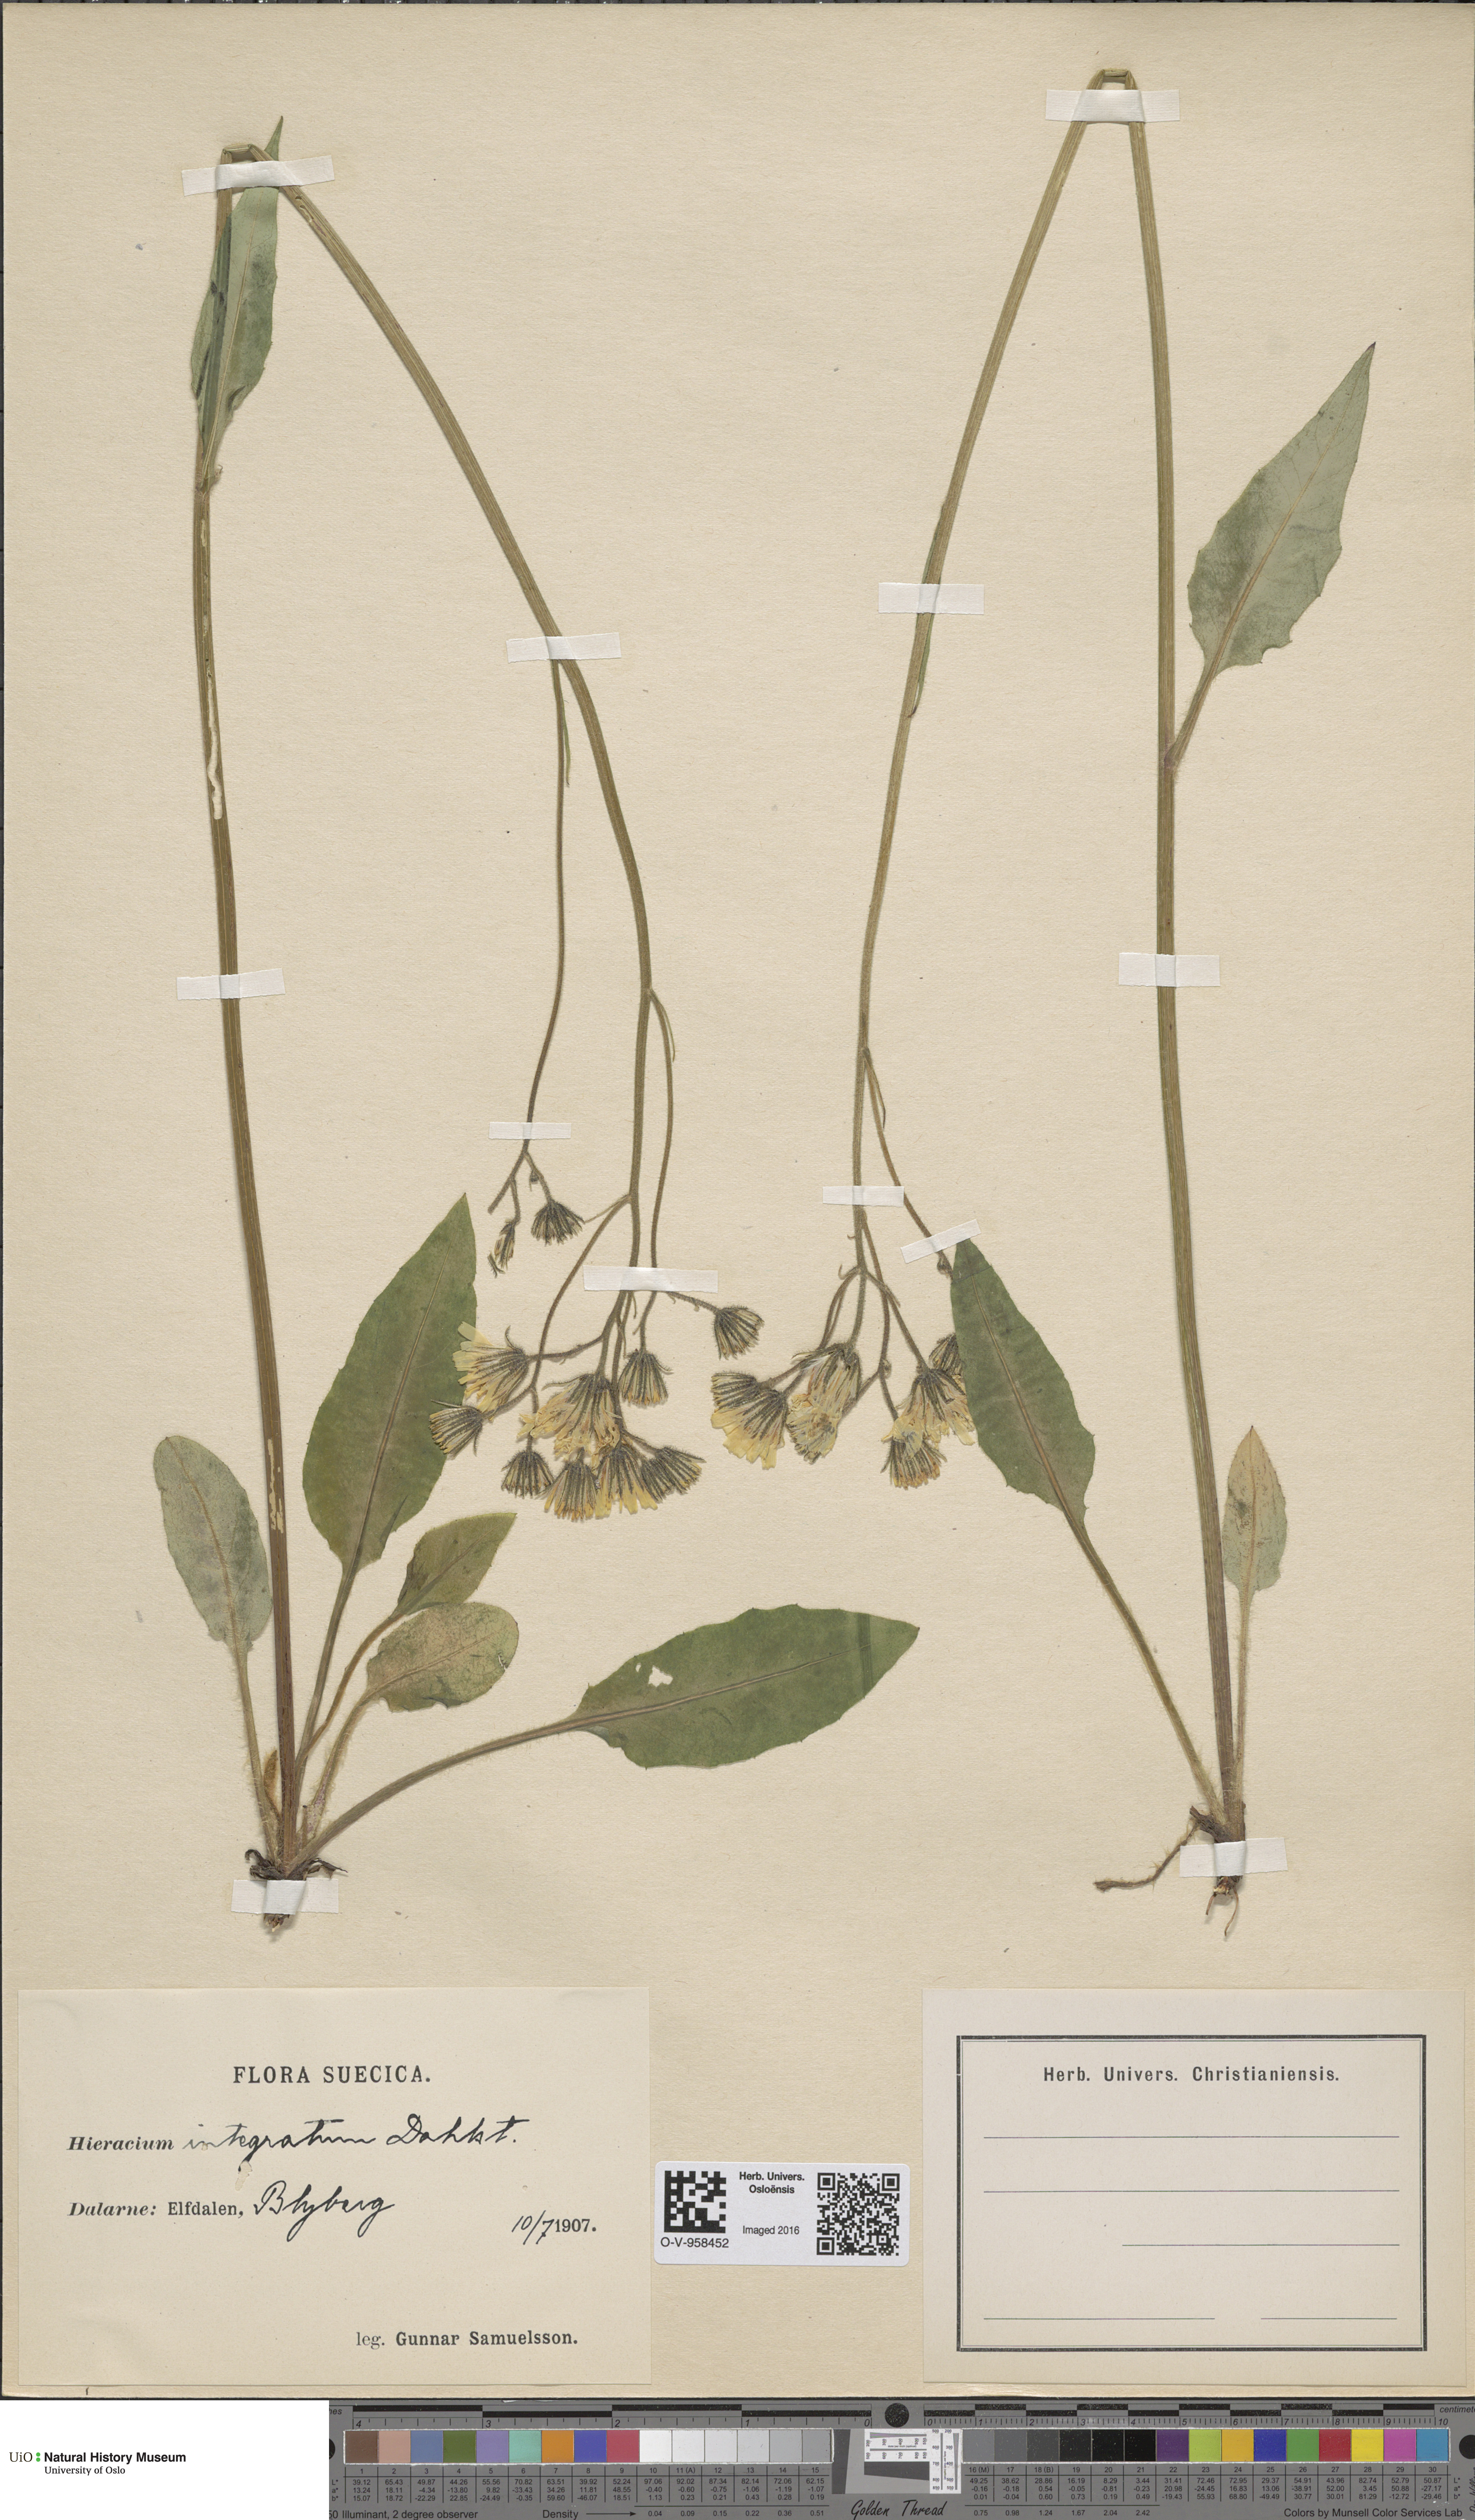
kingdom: Plantae
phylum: Tracheophyta
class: Magnoliopsida
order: Asterales
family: Asteraceae
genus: Hieracium
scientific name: Hieracium murorum
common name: Wall hawkweed
